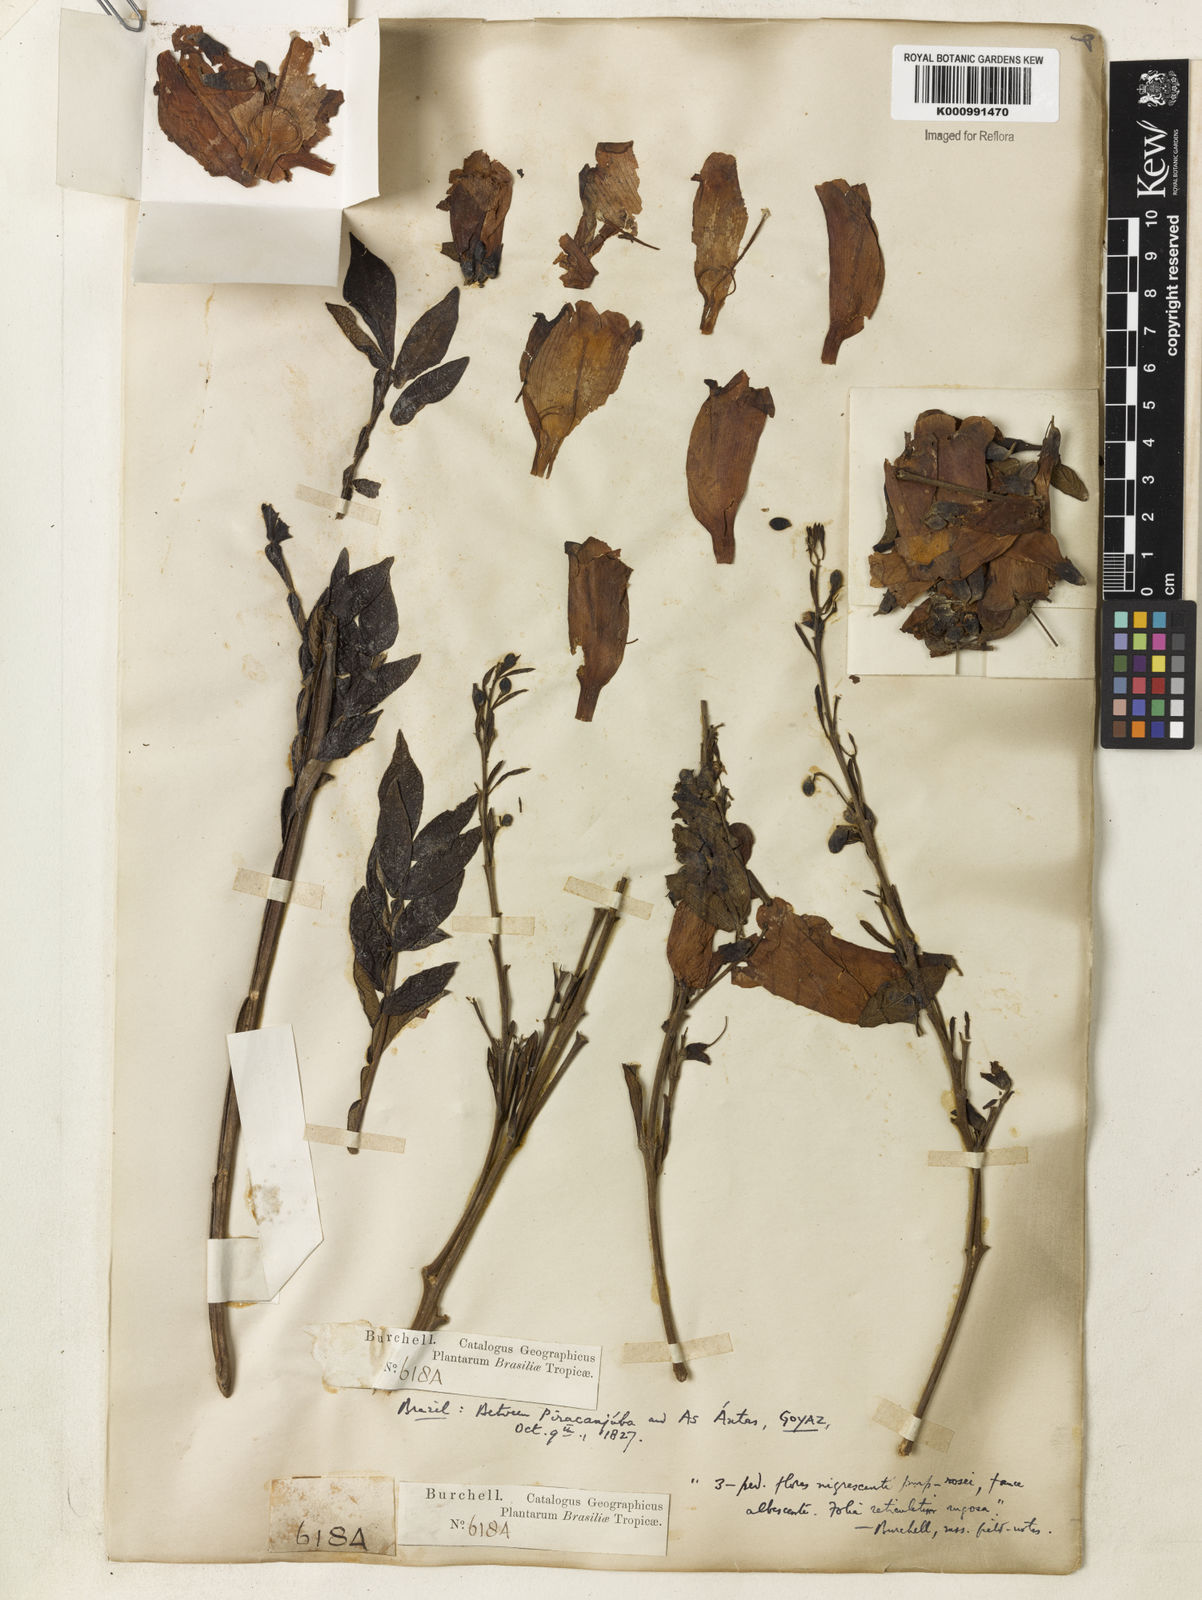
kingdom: Plantae
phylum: Tracheophyta
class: Magnoliopsida
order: Lamiales
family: Bignoniaceae
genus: Jacaranda
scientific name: Jacaranda rufa
